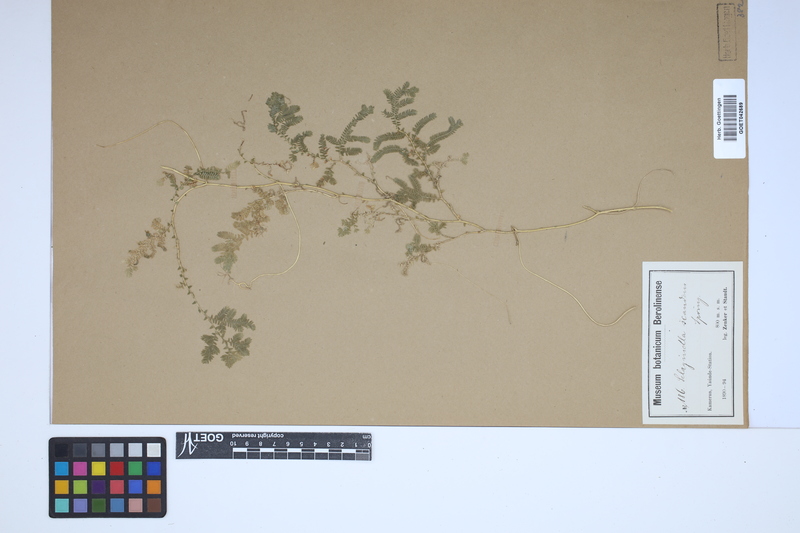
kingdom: Plantae
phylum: Tracheophyta
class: Lycopodiopsida
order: Selaginellales
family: Selaginellaceae
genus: Selaginella
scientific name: Selaginella myosurus
